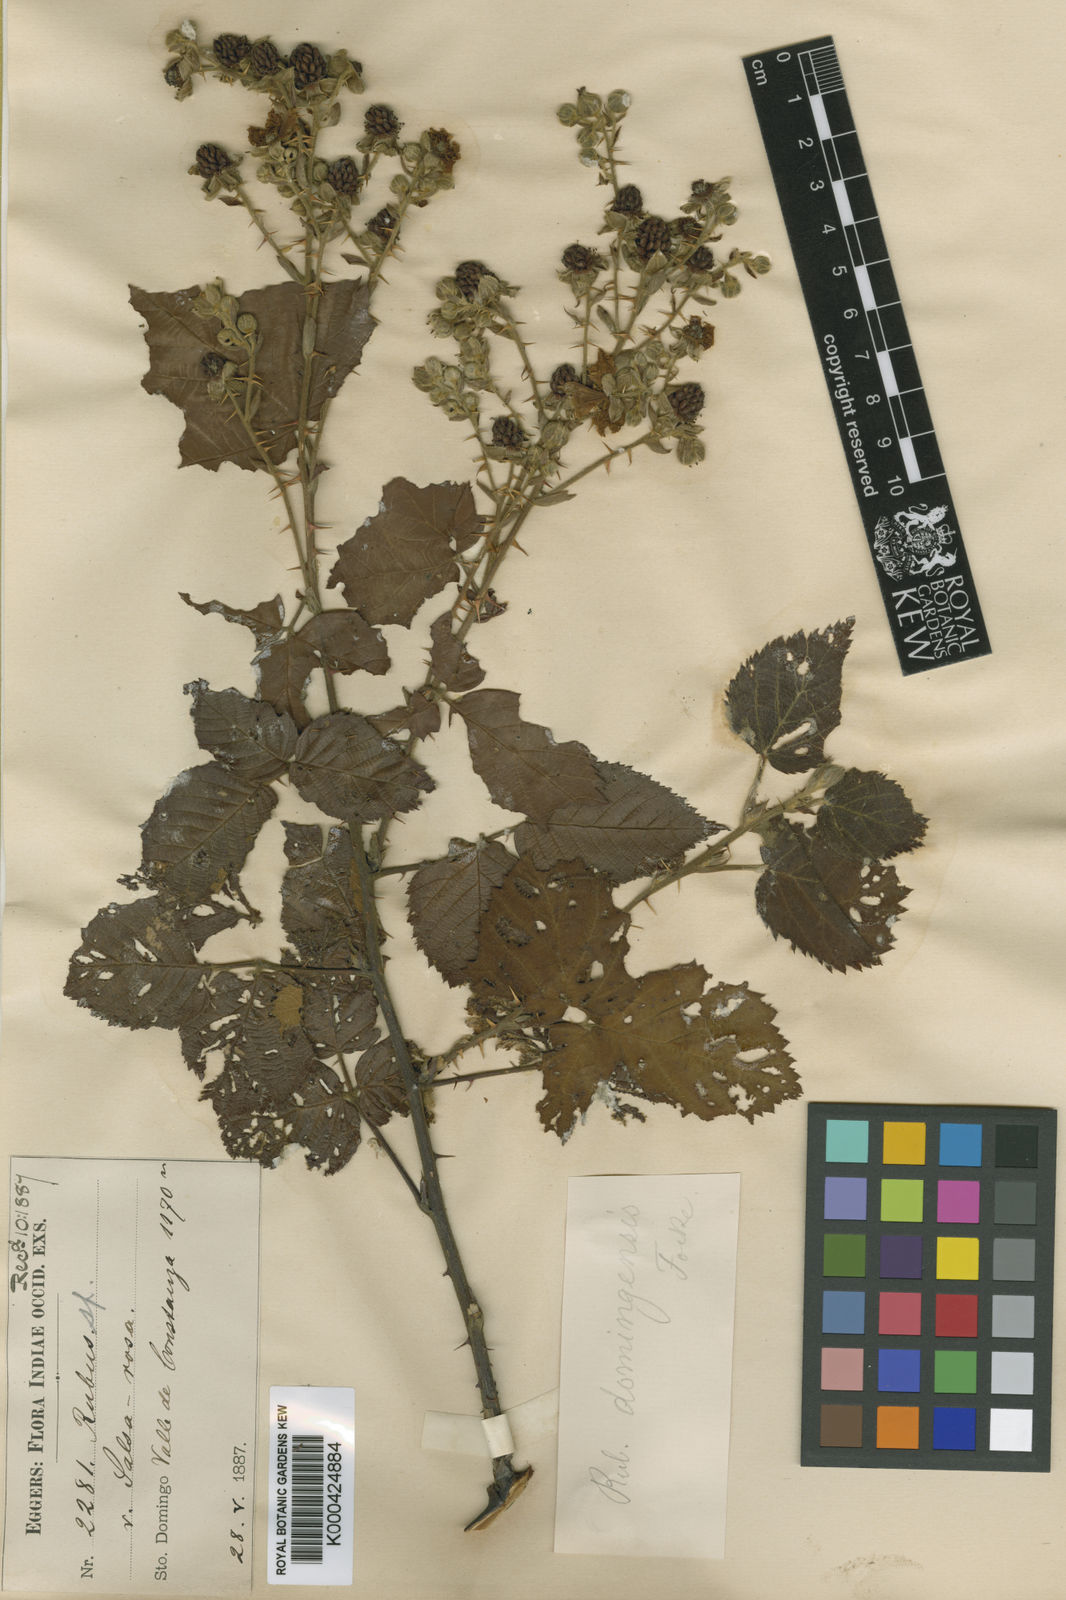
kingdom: Plantae
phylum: Tracheophyta
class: Magnoliopsida
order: Rosales
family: Rosaceae
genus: Rubus
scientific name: Rubus domingensis
